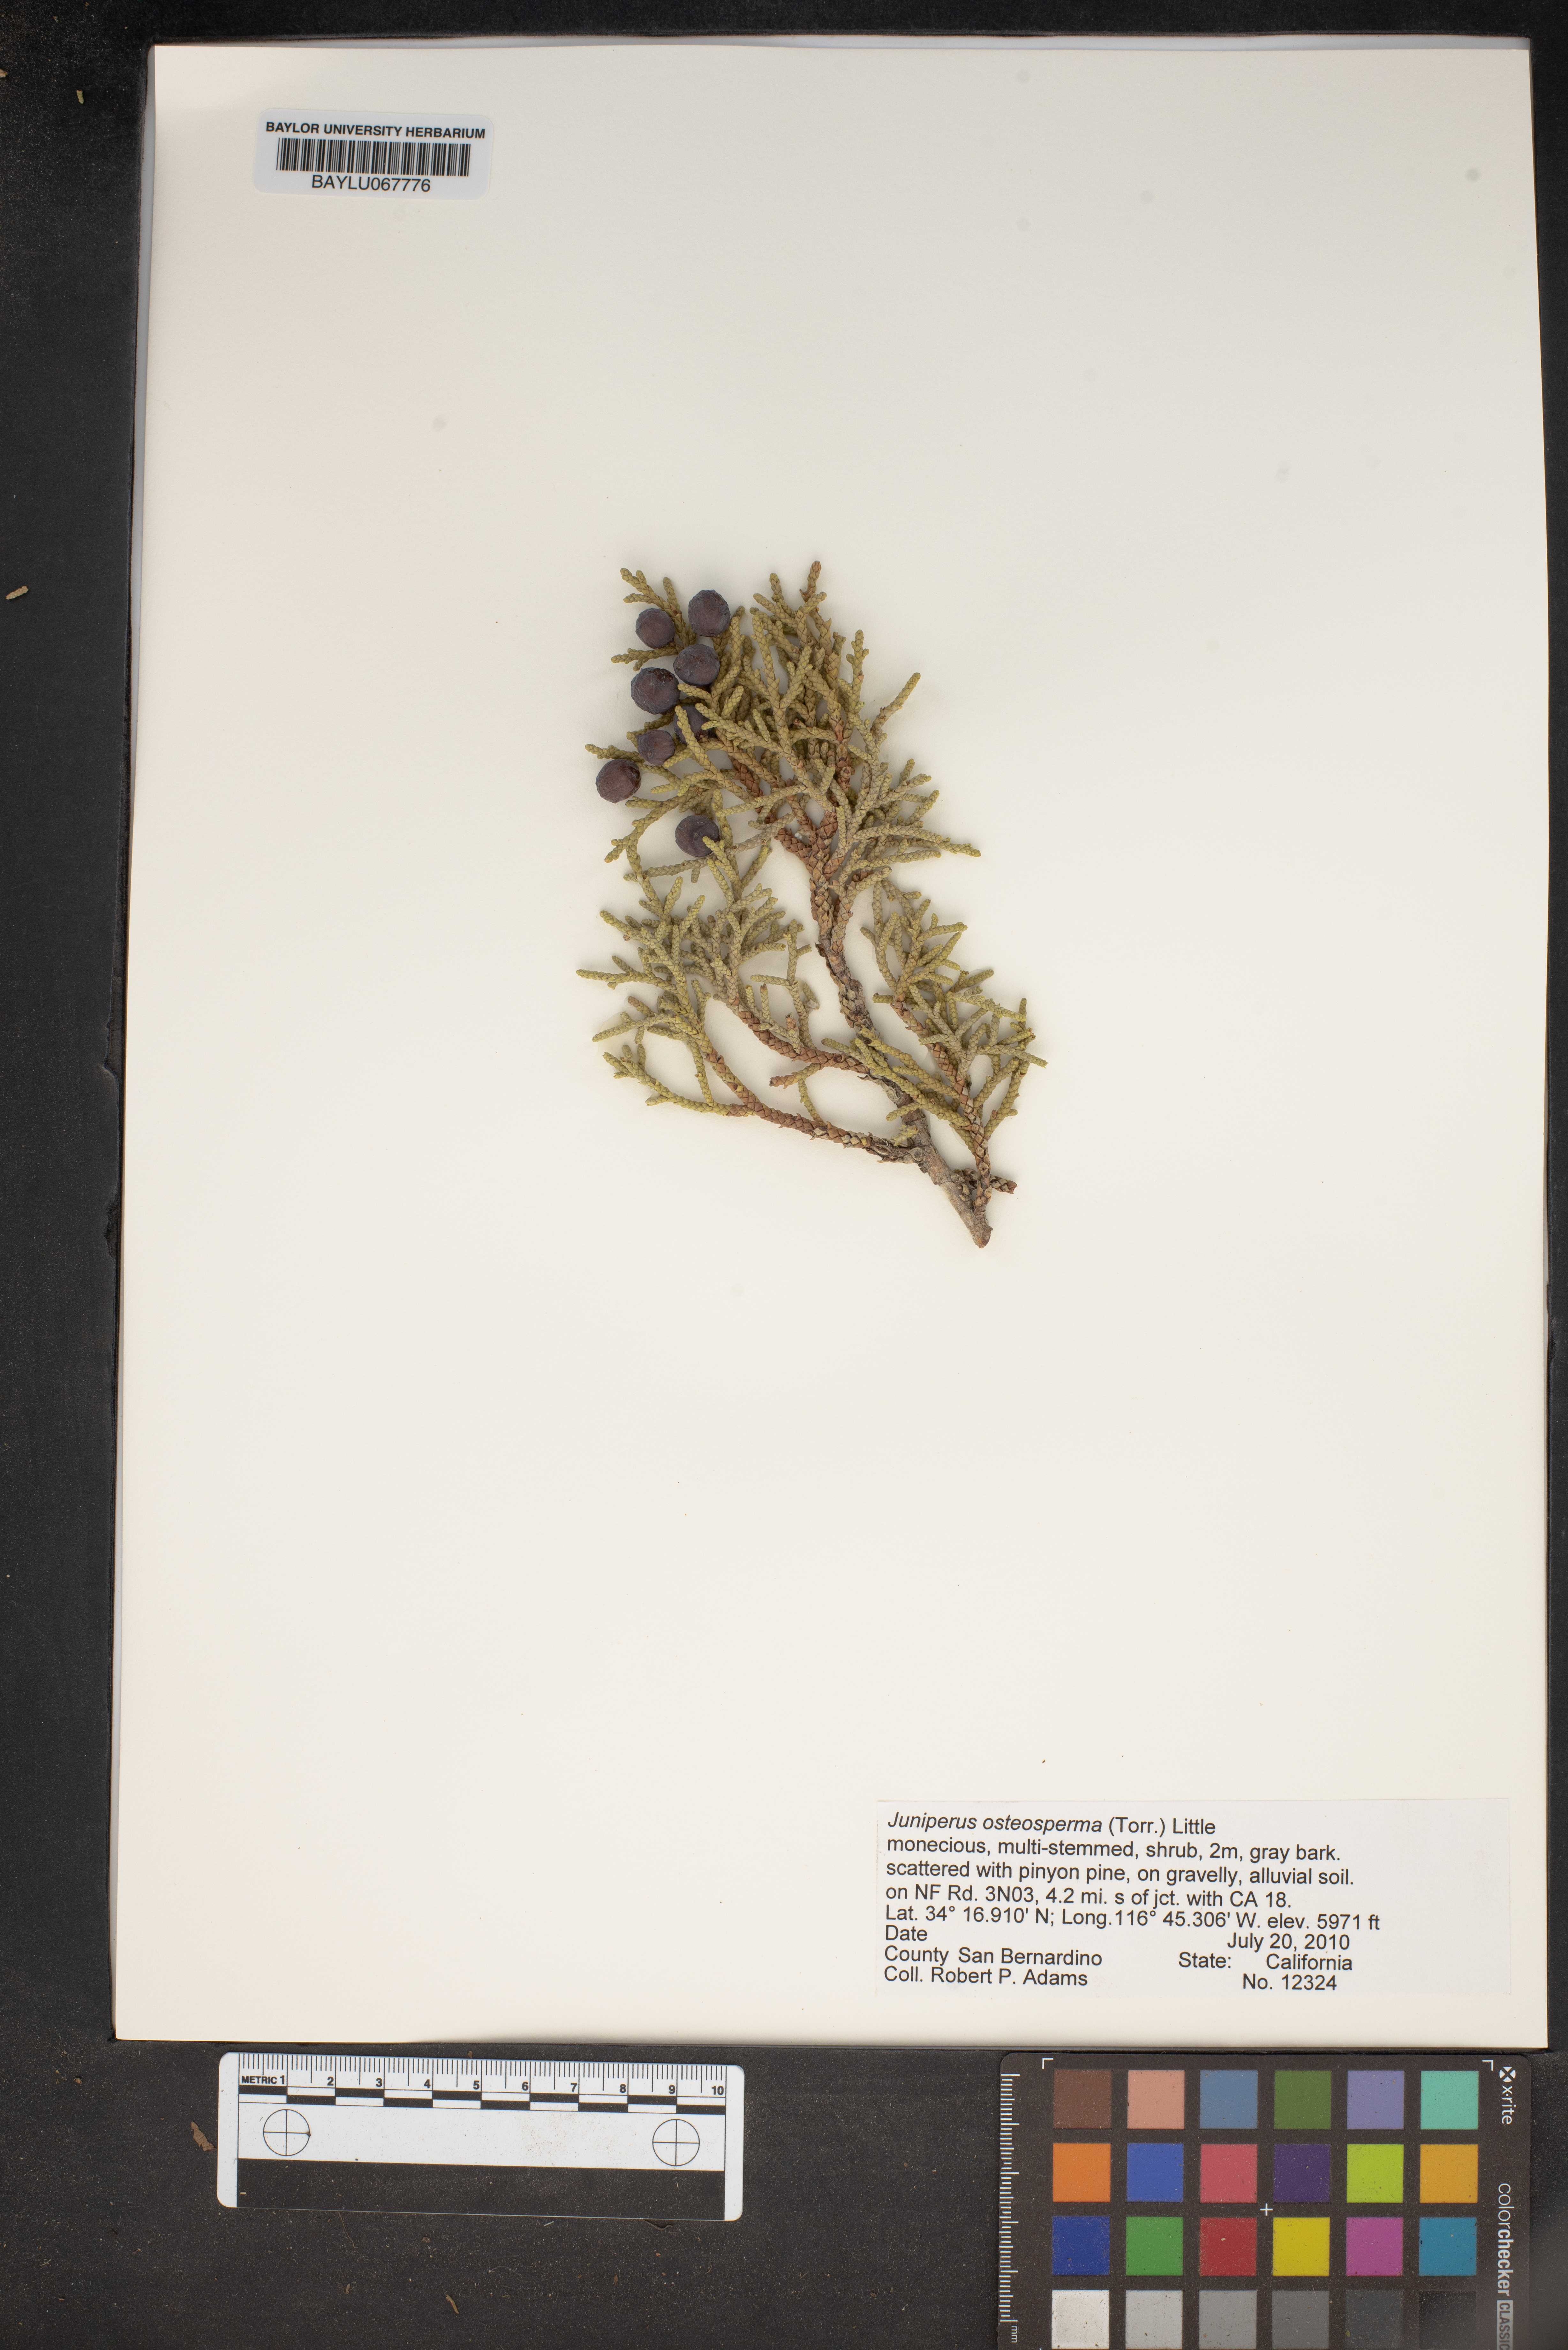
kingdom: Plantae
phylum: Tracheophyta
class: Pinopsida
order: Pinales
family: Cupressaceae
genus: Juniperus
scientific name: Juniperus osteosperma
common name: Utah juniper
